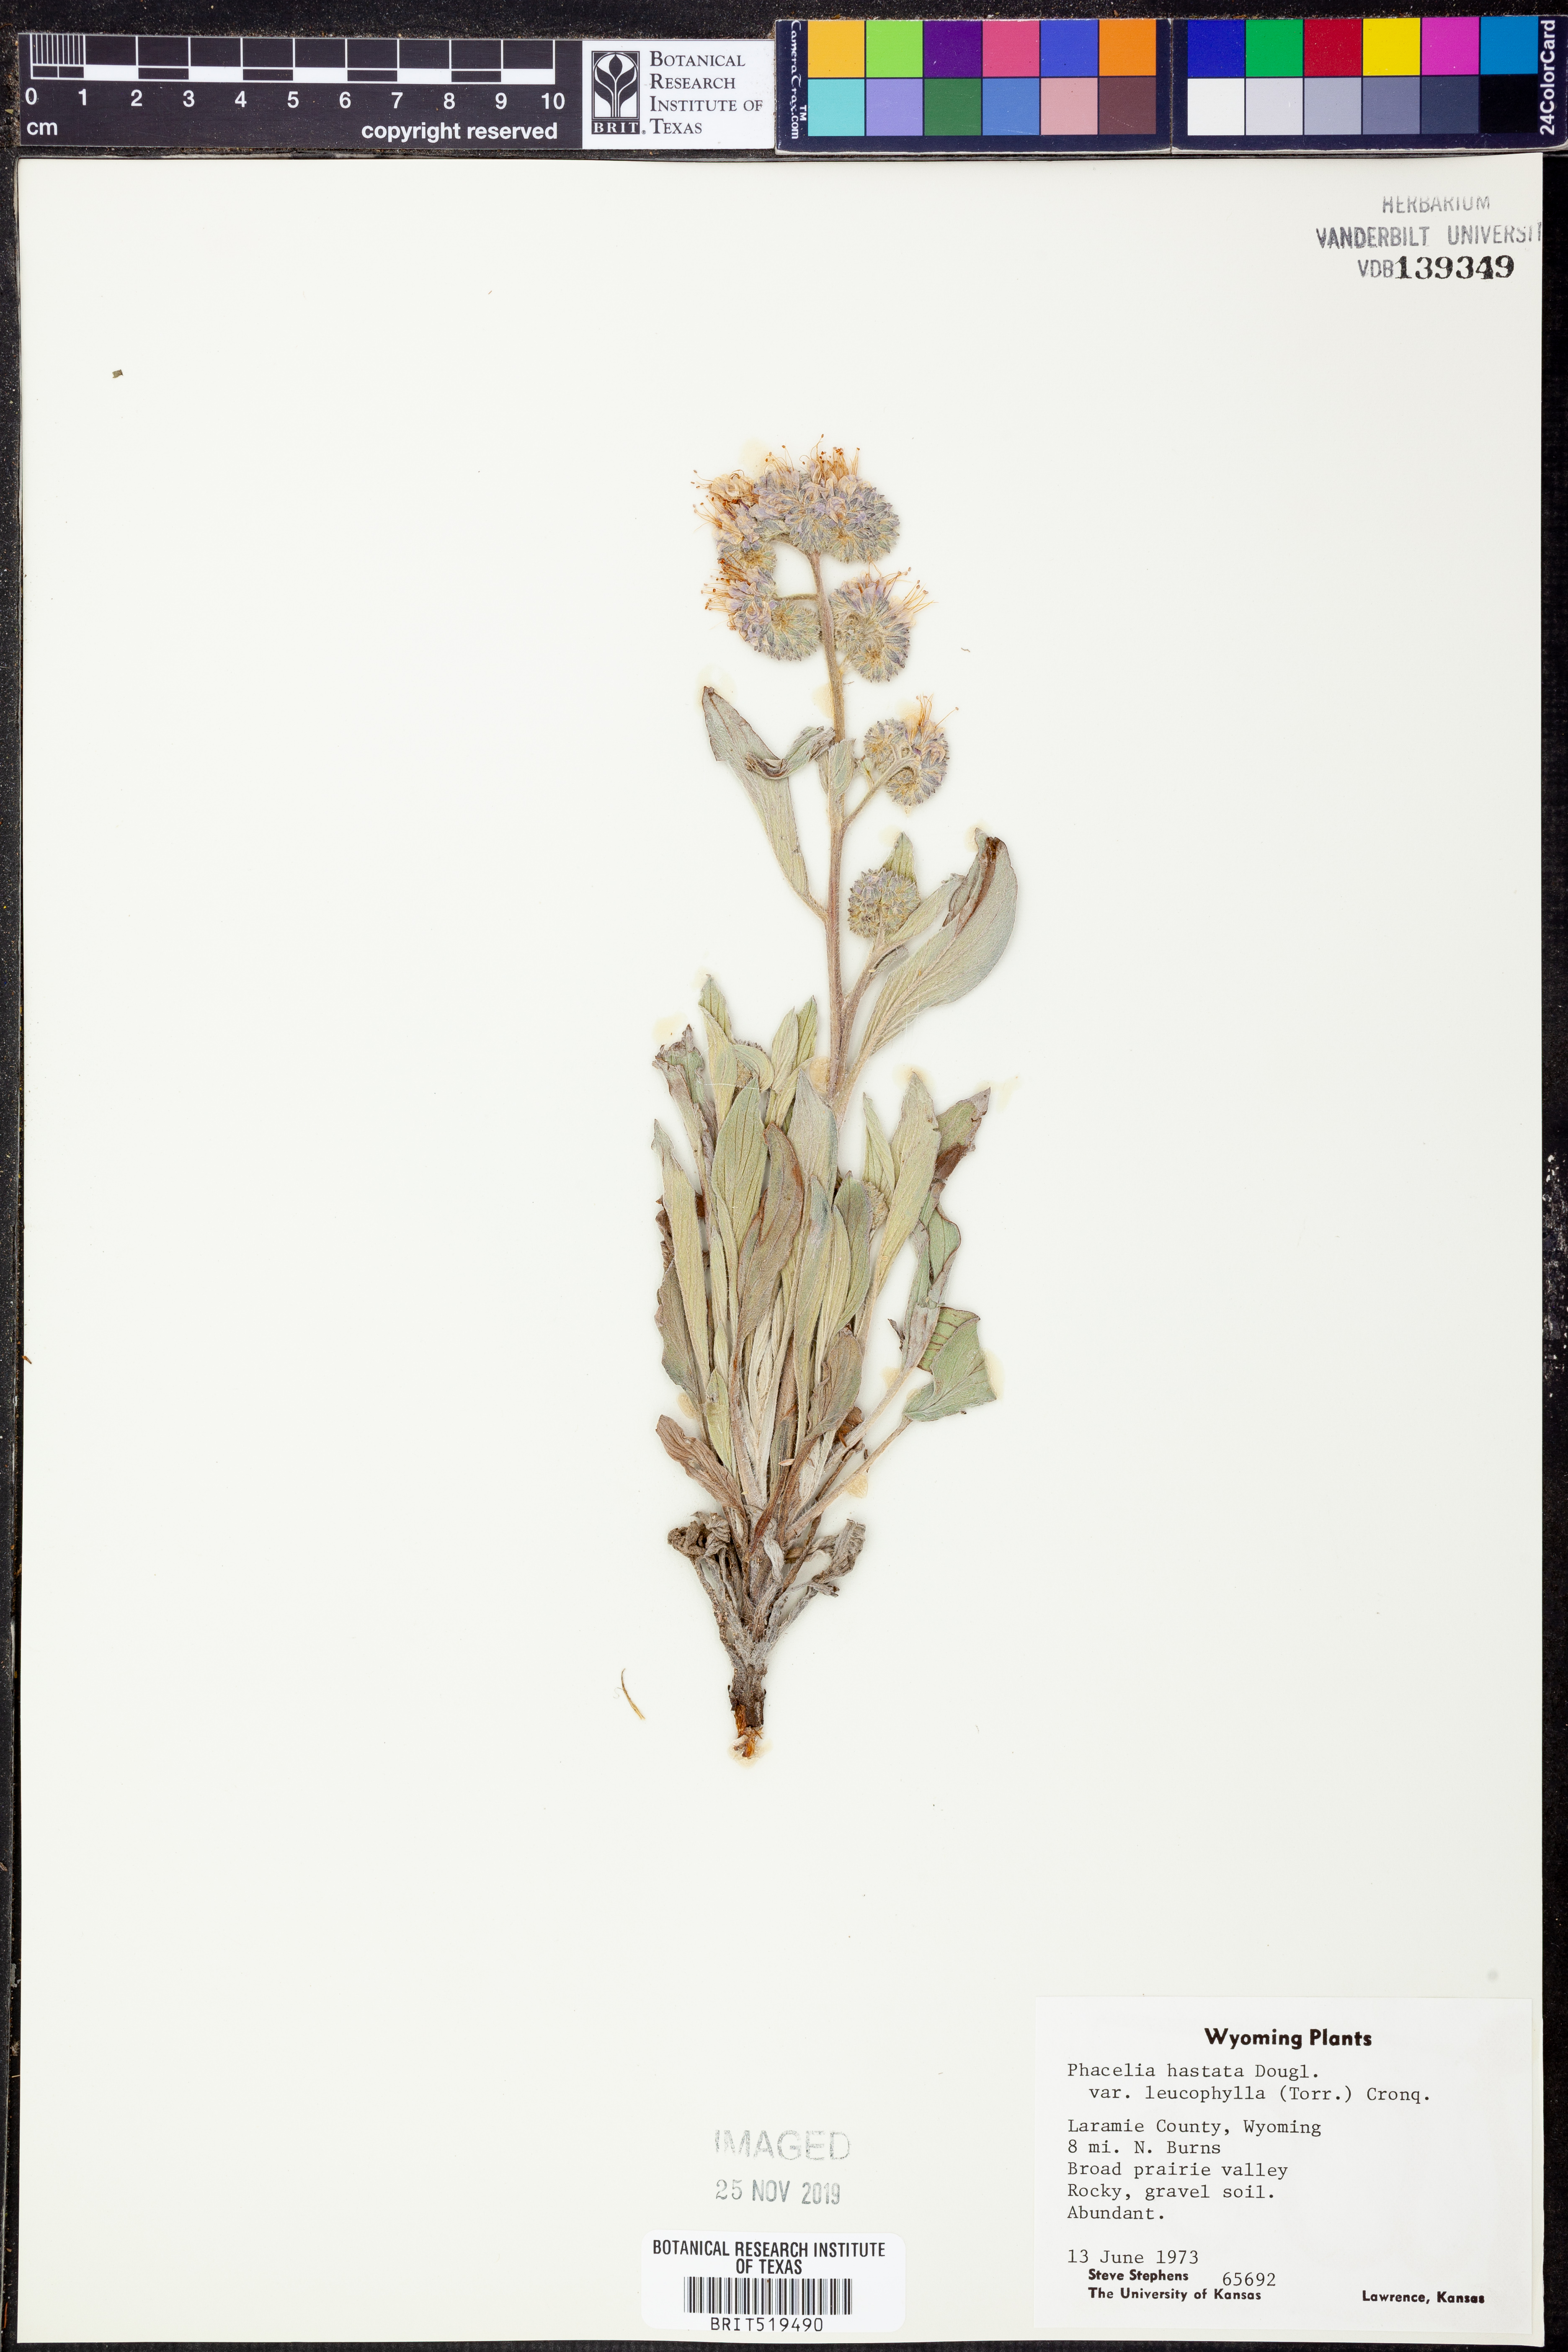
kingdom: Plantae
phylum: Tracheophyta
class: Magnoliopsida
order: Boraginales
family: Hydrophyllaceae
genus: Phacelia
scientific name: Phacelia hastata
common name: Silver-leaved phacelia
